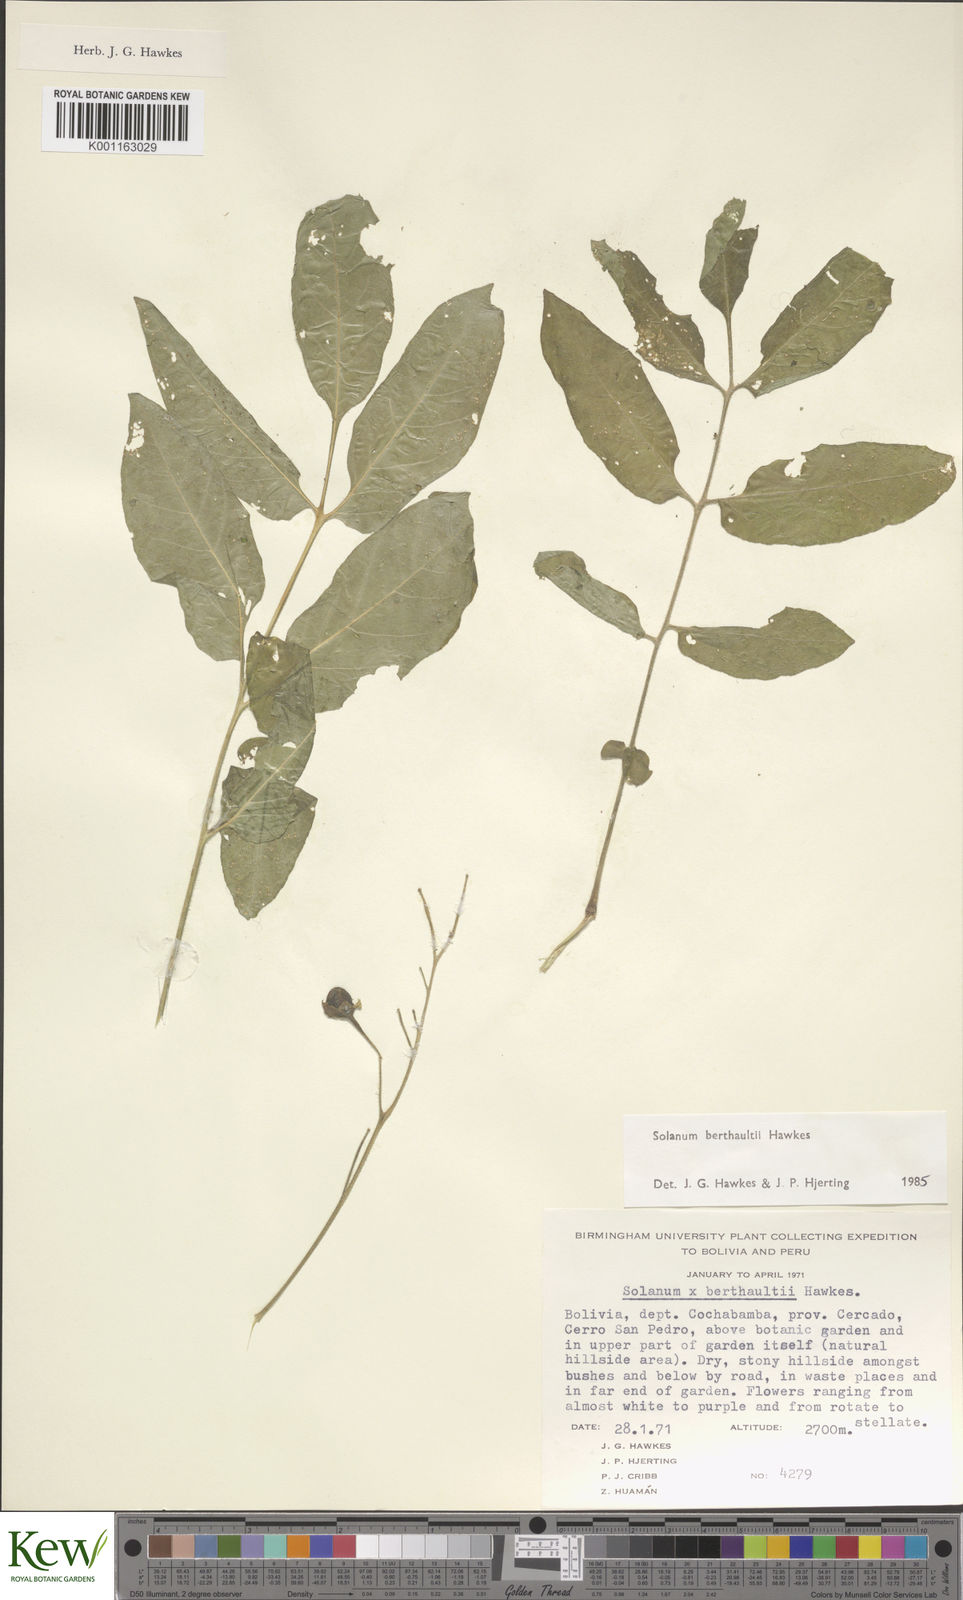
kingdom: Plantae
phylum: Tracheophyta
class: Magnoliopsida
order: Solanales
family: Solanaceae
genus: Solanum
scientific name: Solanum berthaultii
